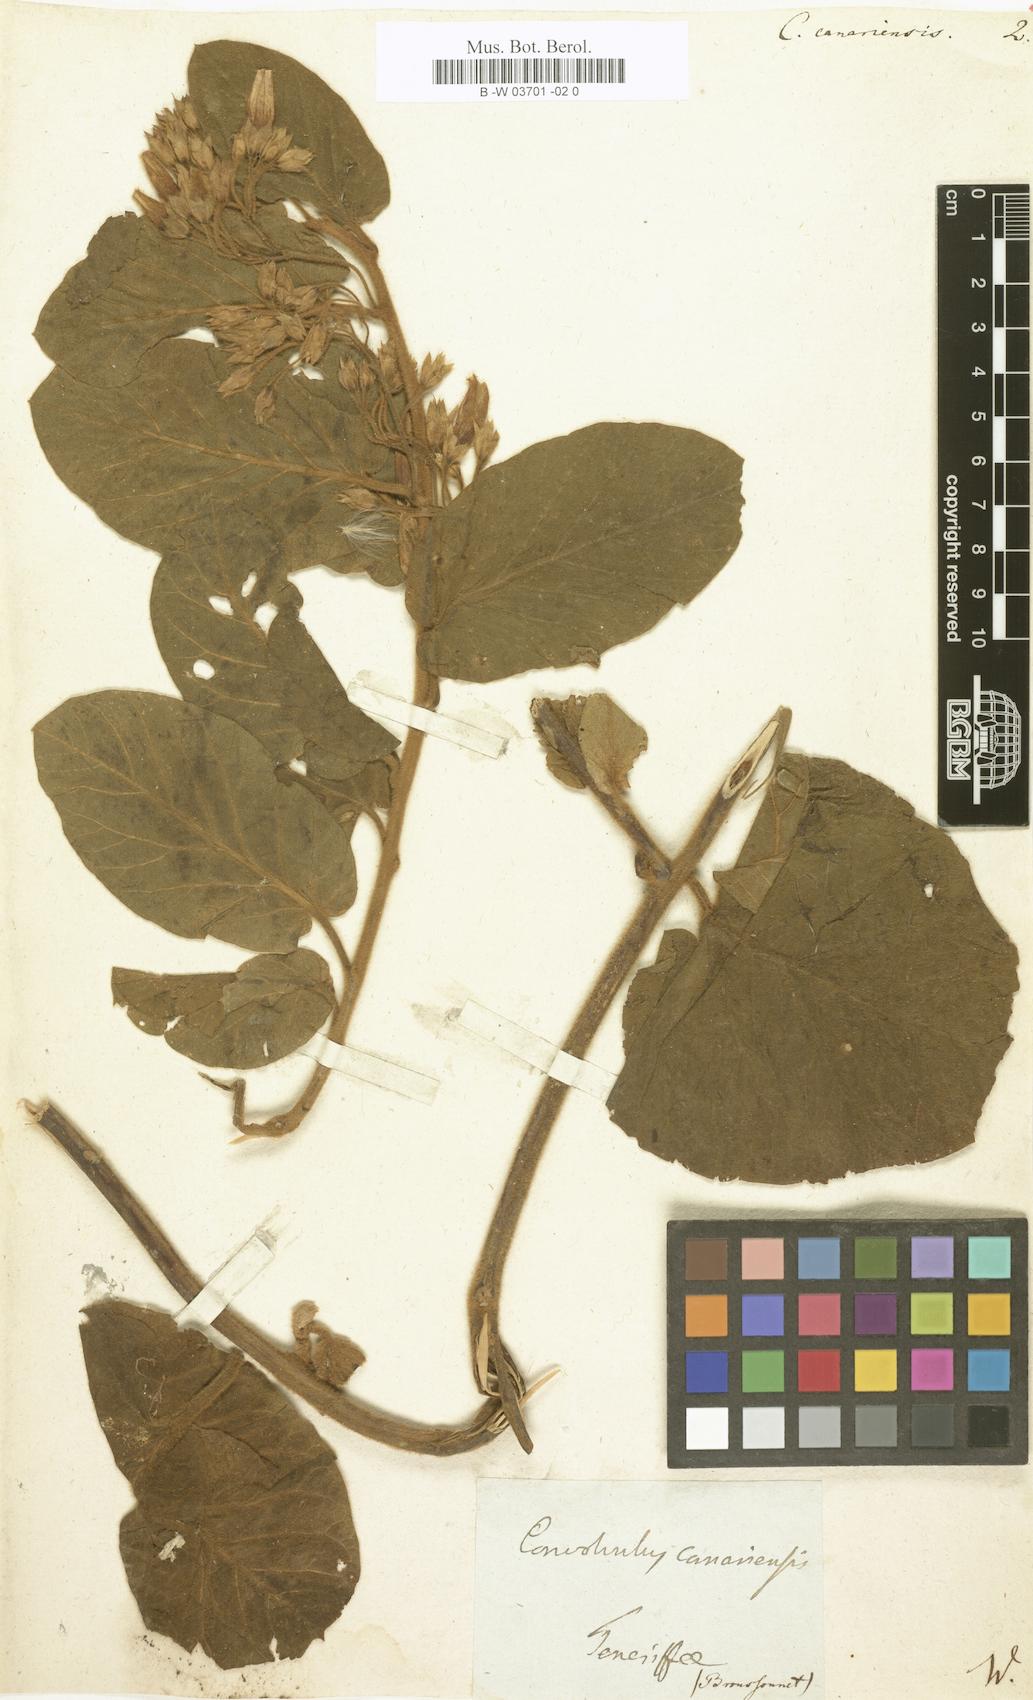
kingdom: Plantae
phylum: Tracheophyta
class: Magnoliopsida
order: Solanales
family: Convolvulaceae
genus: Convolvulus
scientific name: Convolvulus canariensis
